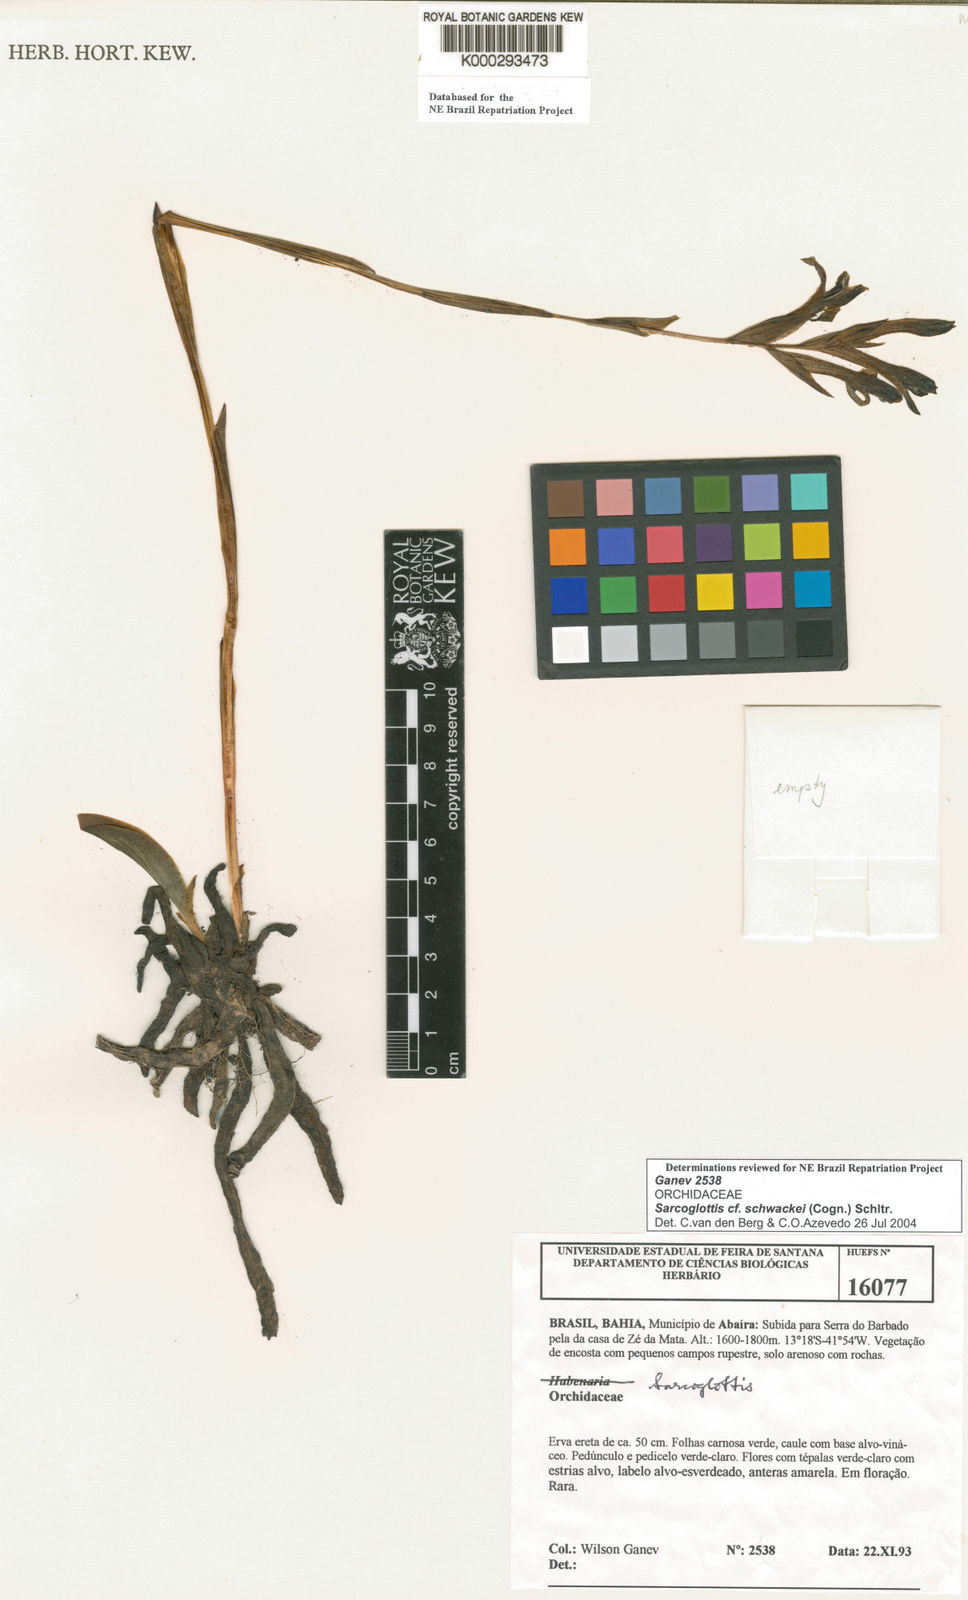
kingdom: Plantae
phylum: Tracheophyta
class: Liliopsida
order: Asparagales
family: Orchidaceae
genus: Sarcoglottis
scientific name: Sarcoglottis schwackei
